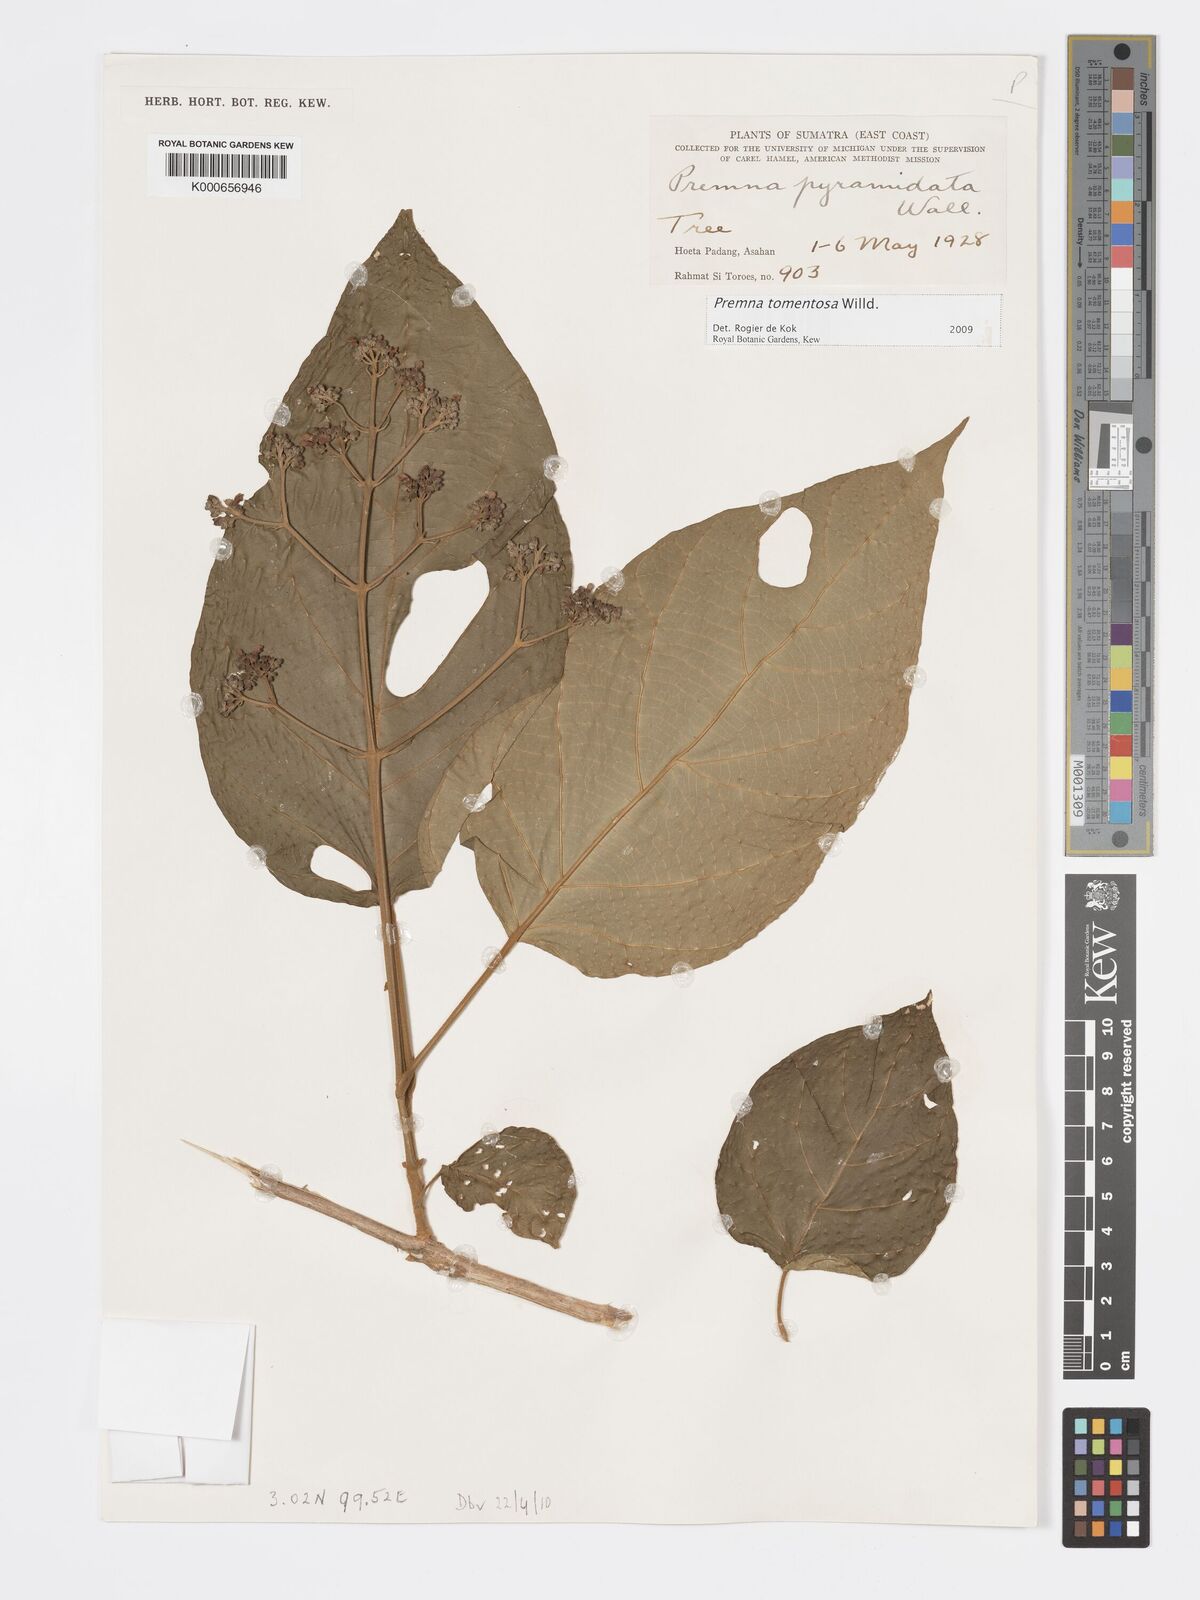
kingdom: Plantae
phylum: Tracheophyta
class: Magnoliopsida
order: Lamiales
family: Lamiaceae
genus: Premna
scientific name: Premna tomentosa
